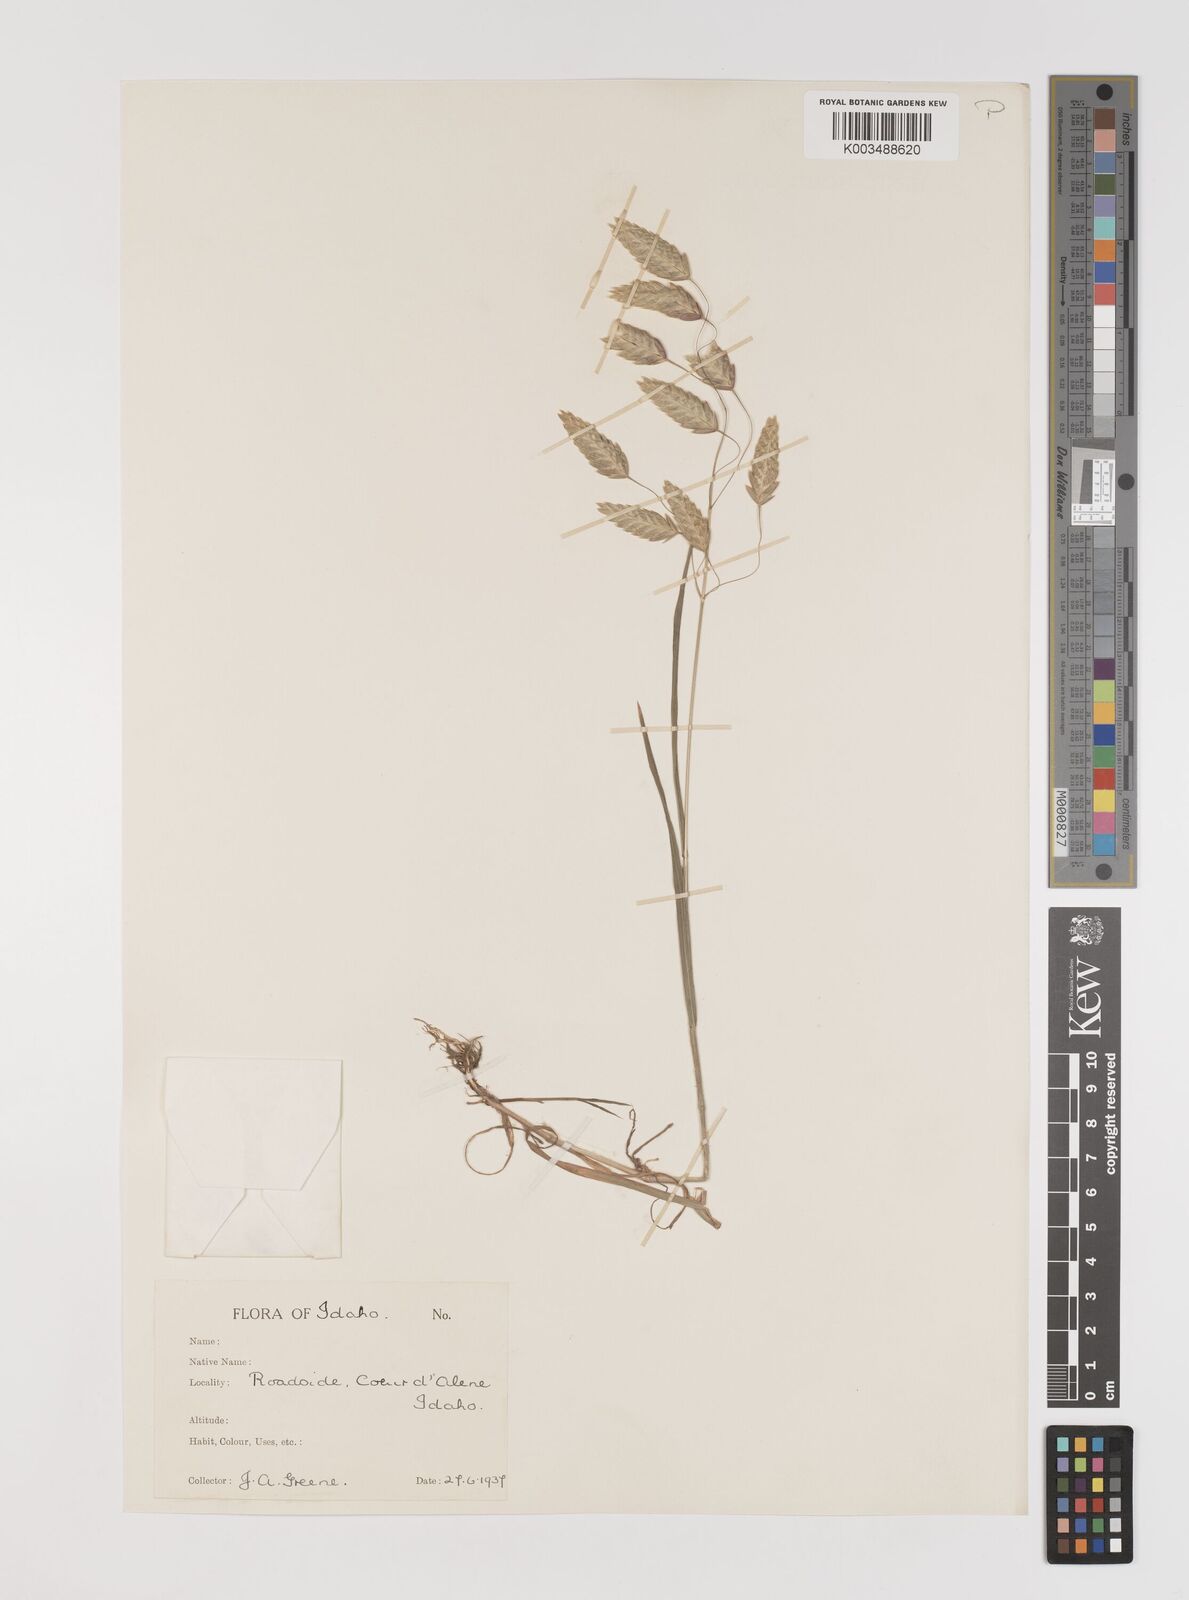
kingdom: Plantae
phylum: Tracheophyta
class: Liliopsida
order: Poales
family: Poaceae
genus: Bromus
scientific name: Bromus briziformis
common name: Rattlesnake brome
